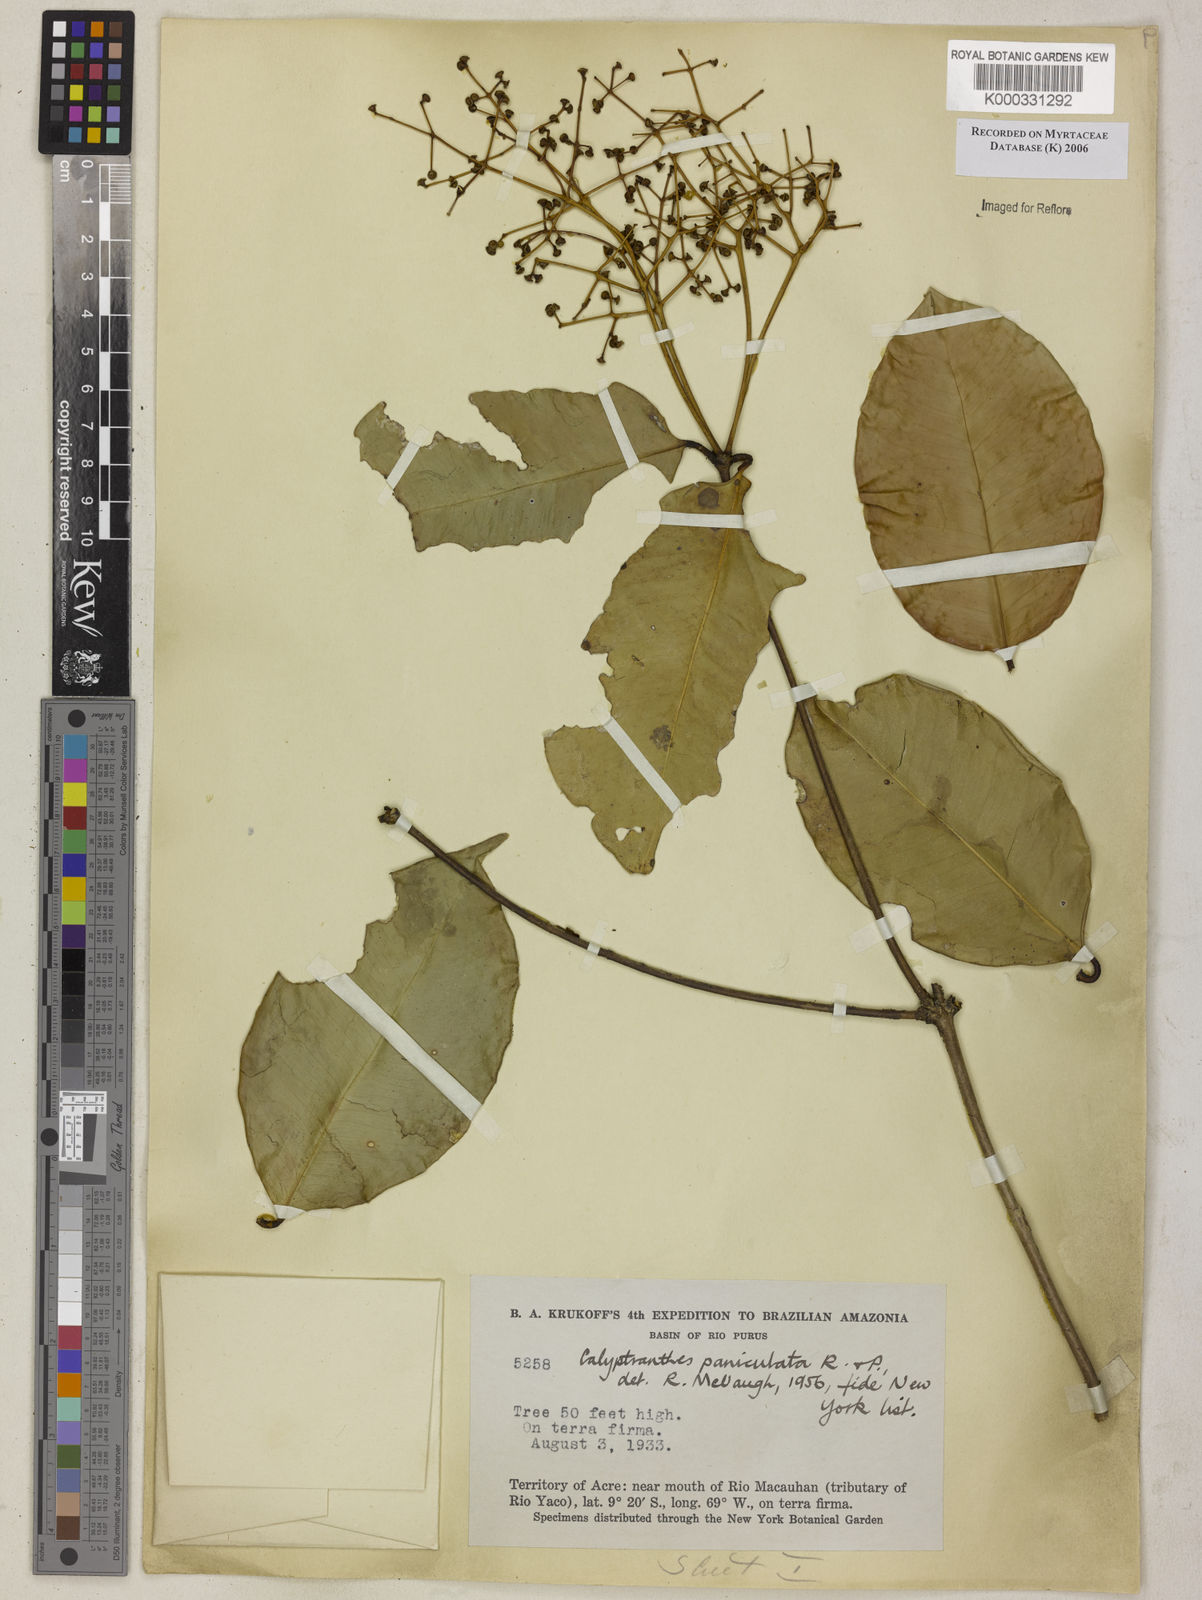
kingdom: Plantae
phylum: Tracheophyta
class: Magnoliopsida
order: Myrtales
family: Myrtaceae
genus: Calyptranthes
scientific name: Calyptranthes
